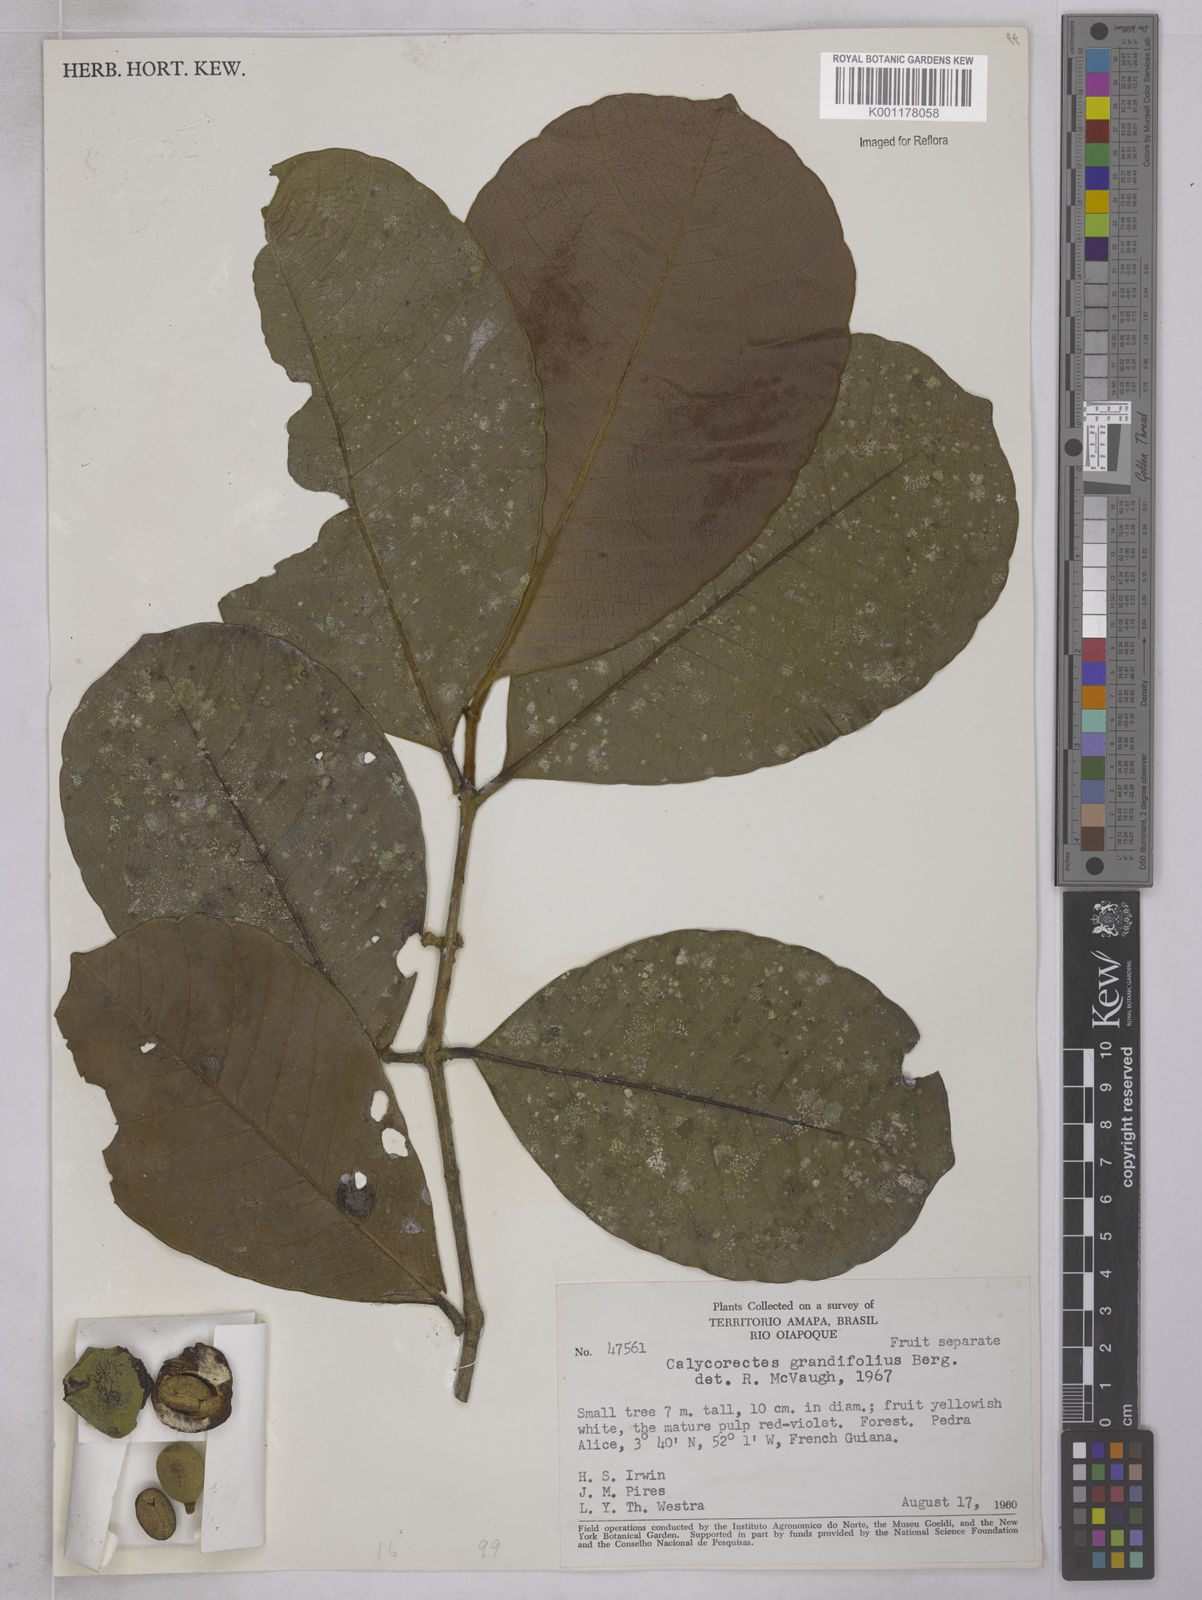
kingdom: Plantae
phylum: Tracheophyta
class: Magnoliopsida
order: Myrtales
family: Myrtaceae
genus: Calycorectes
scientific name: Calycorectes grandifolius
